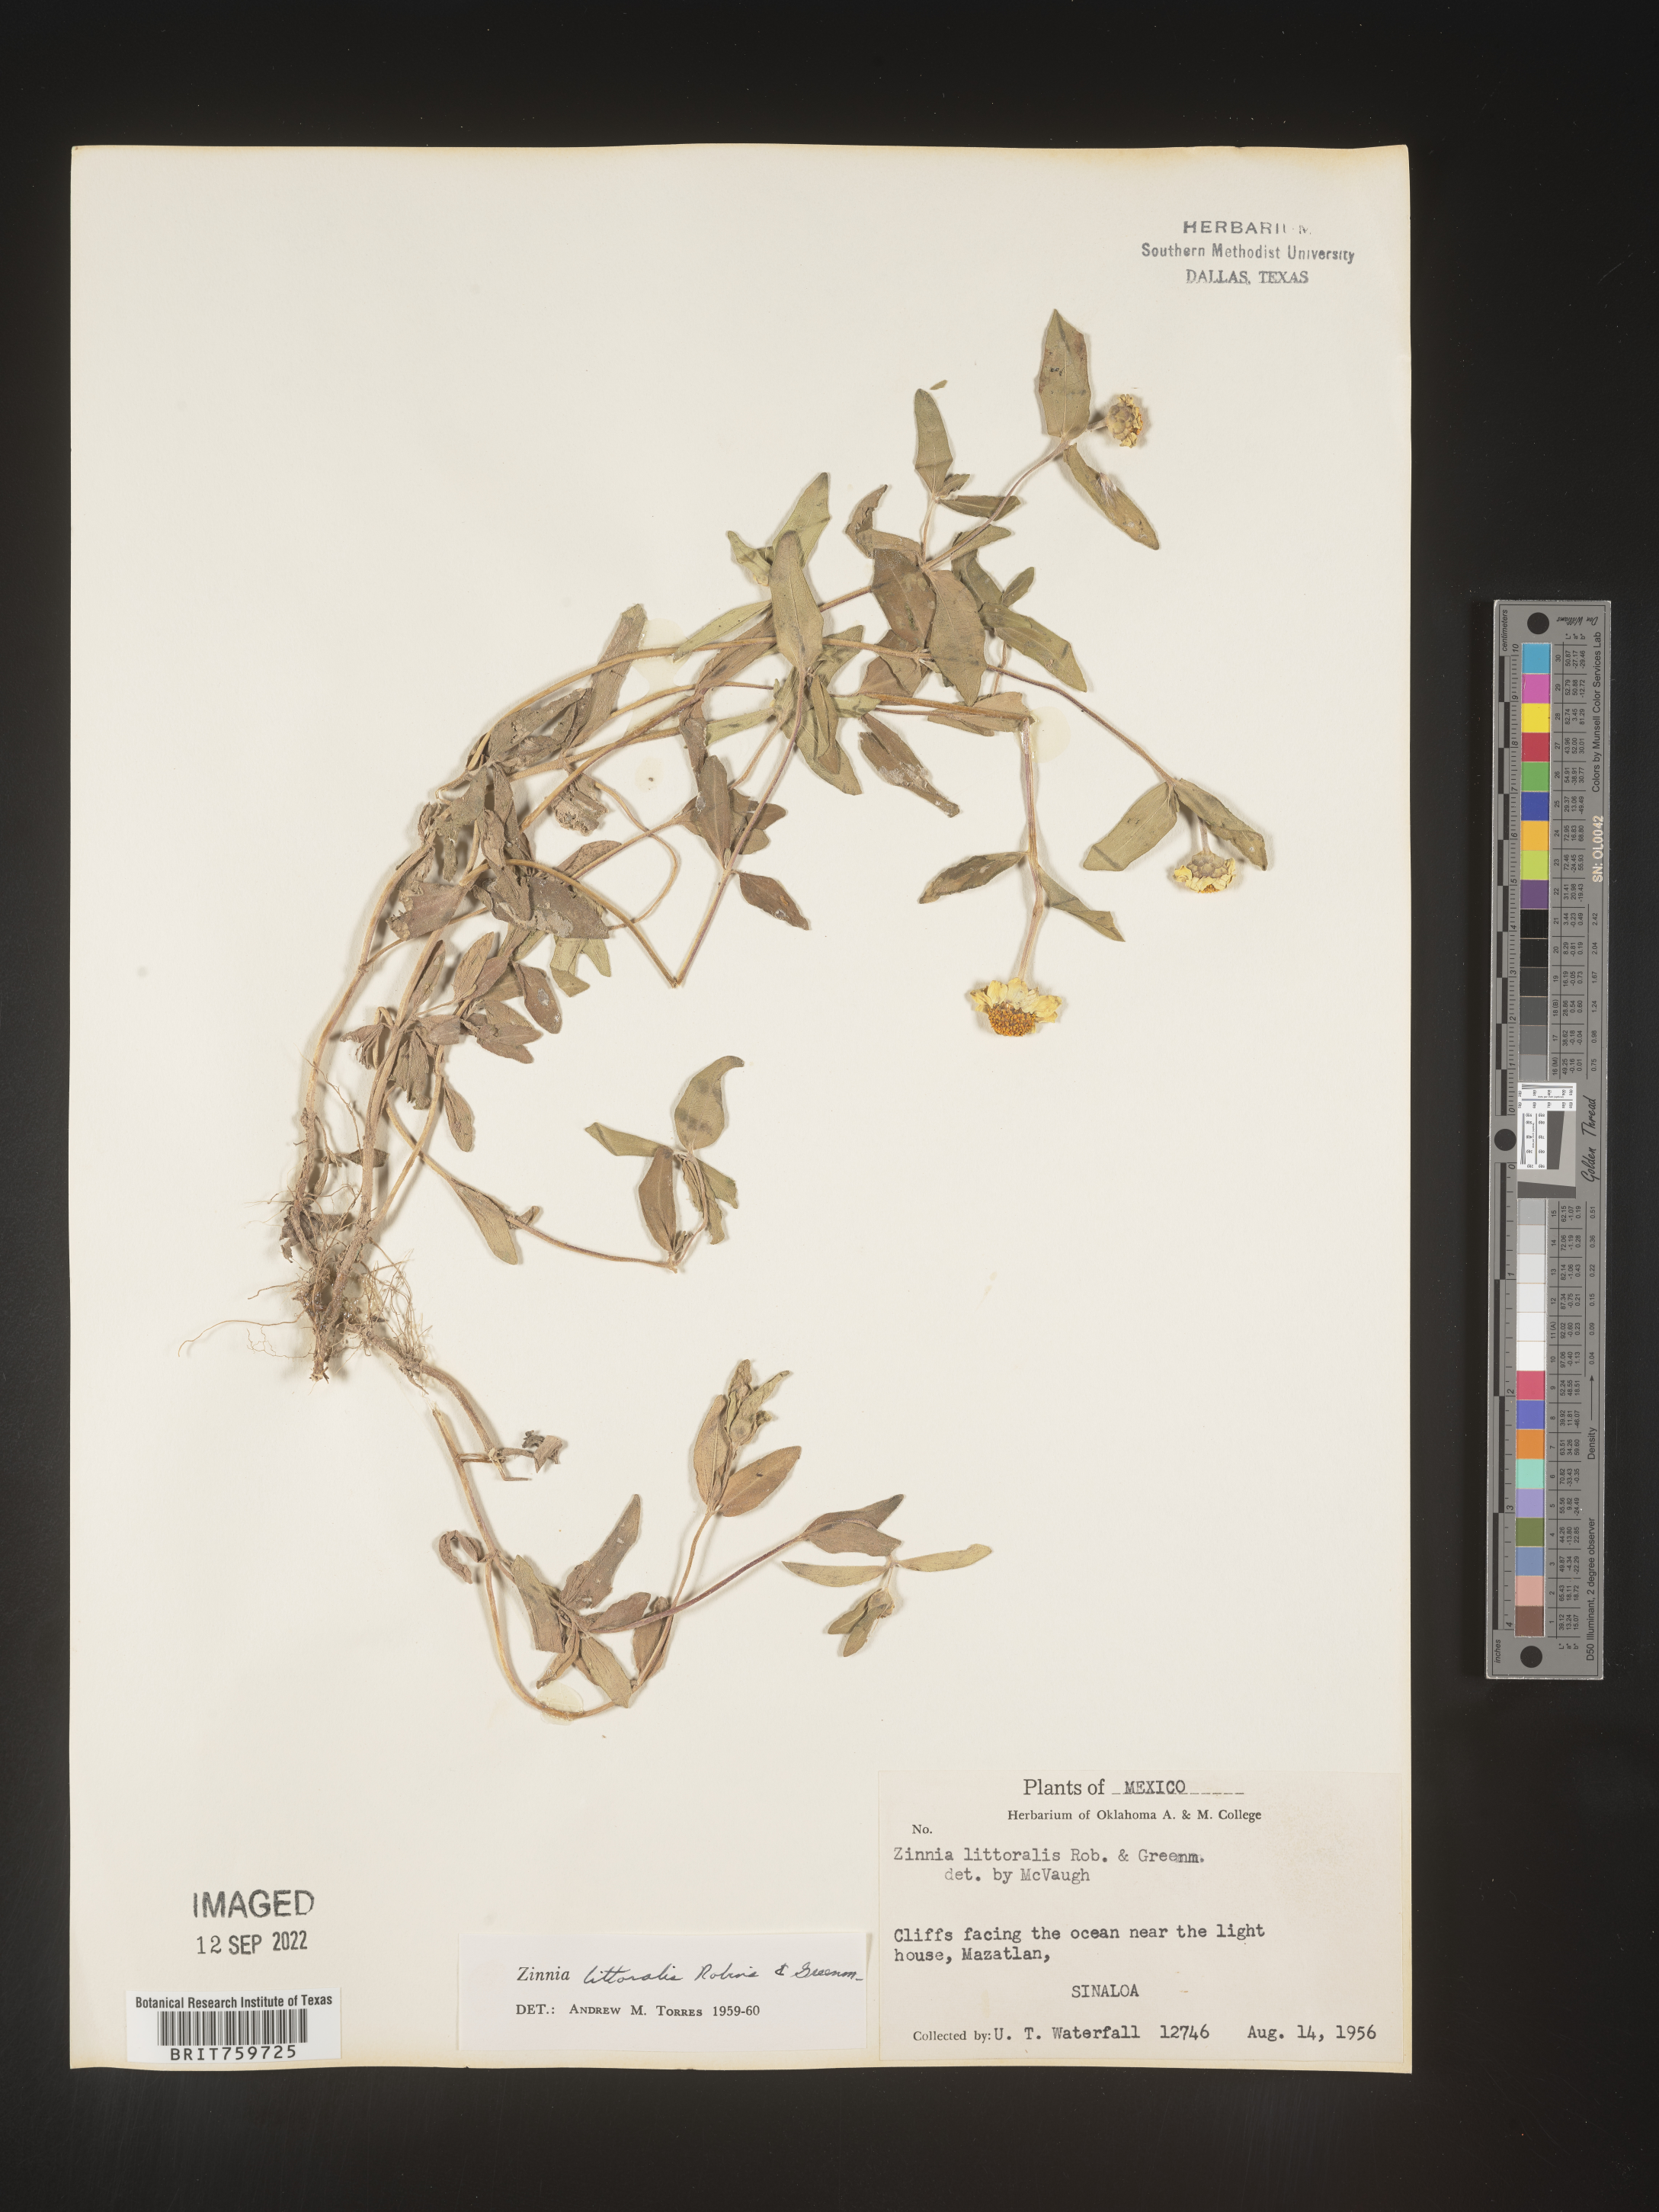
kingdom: Plantae
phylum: Tracheophyta
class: Magnoliopsida
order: Asterales
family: Asteraceae
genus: Zinnia
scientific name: Zinnia
